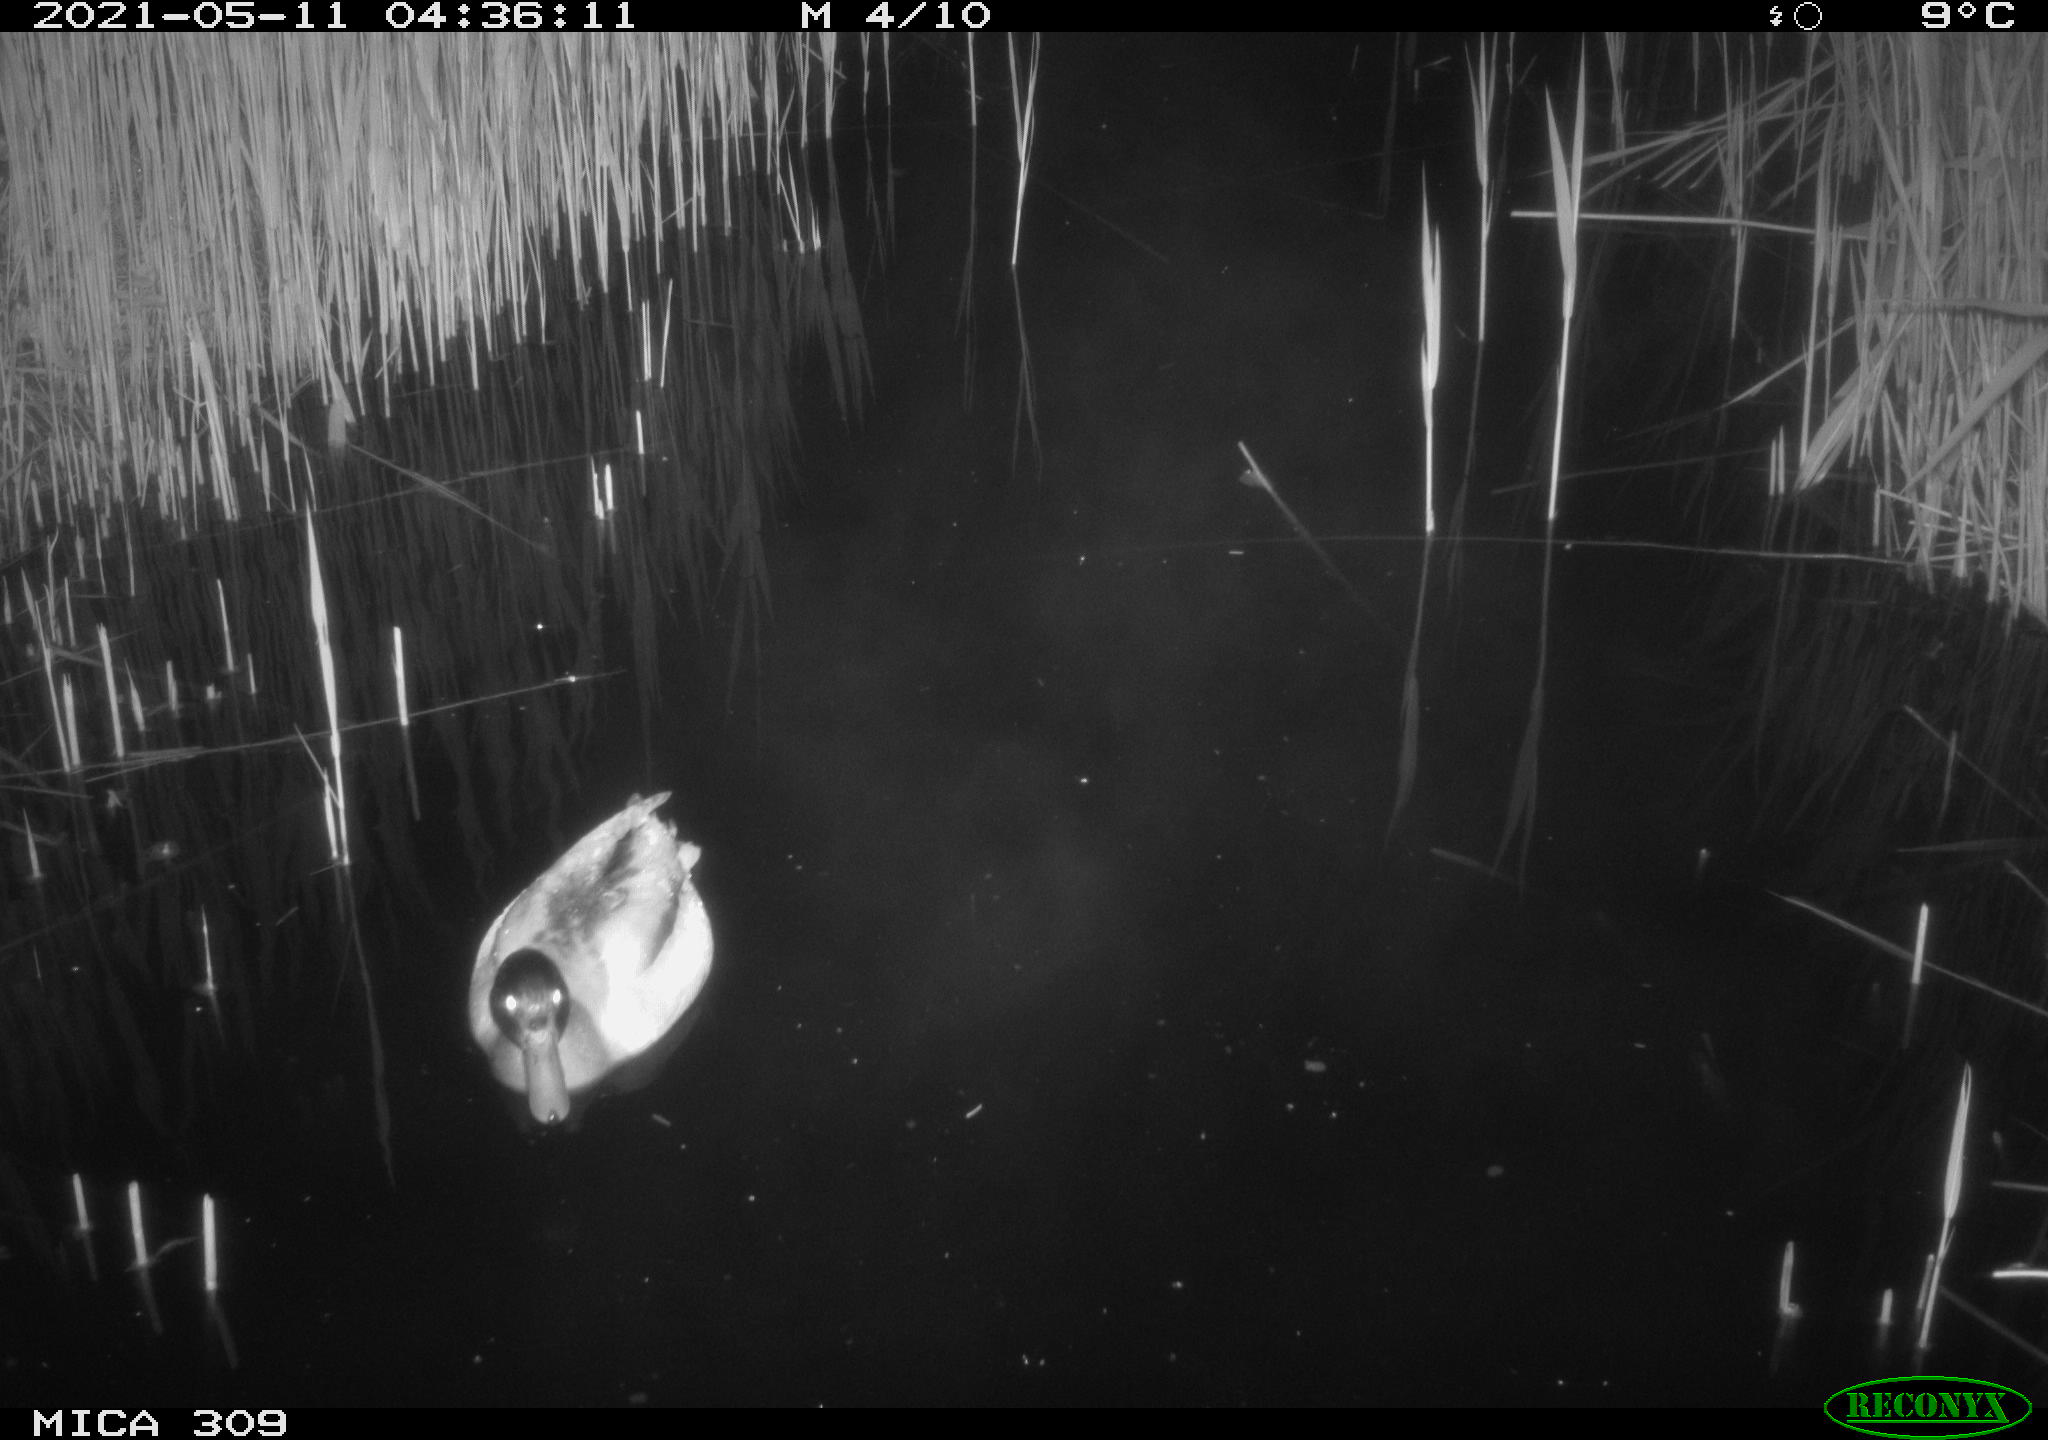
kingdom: Animalia
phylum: Chordata
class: Aves
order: Anseriformes
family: Anatidae
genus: Anas
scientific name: Anas platyrhynchos
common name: Mallard
